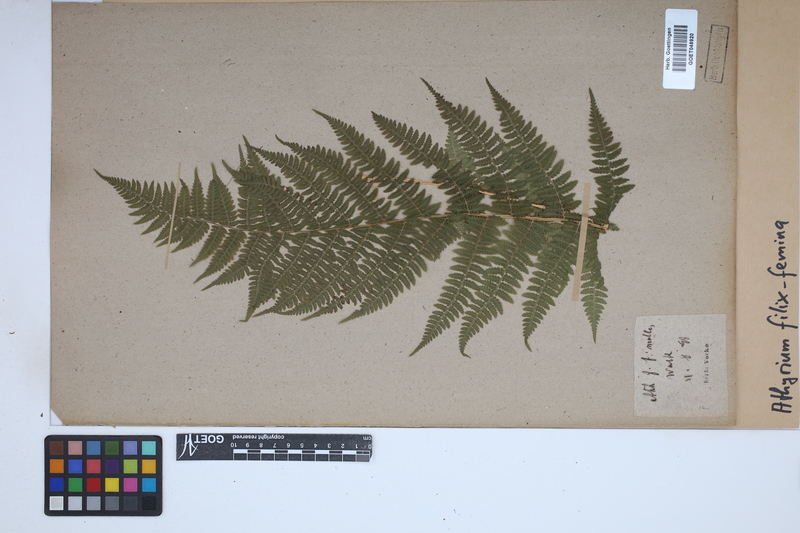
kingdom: Plantae
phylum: Tracheophyta
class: Polypodiopsida
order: Polypodiales
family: Athyriaceae
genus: Athyrium
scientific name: Athyrium filix-femina
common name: Lady fern
